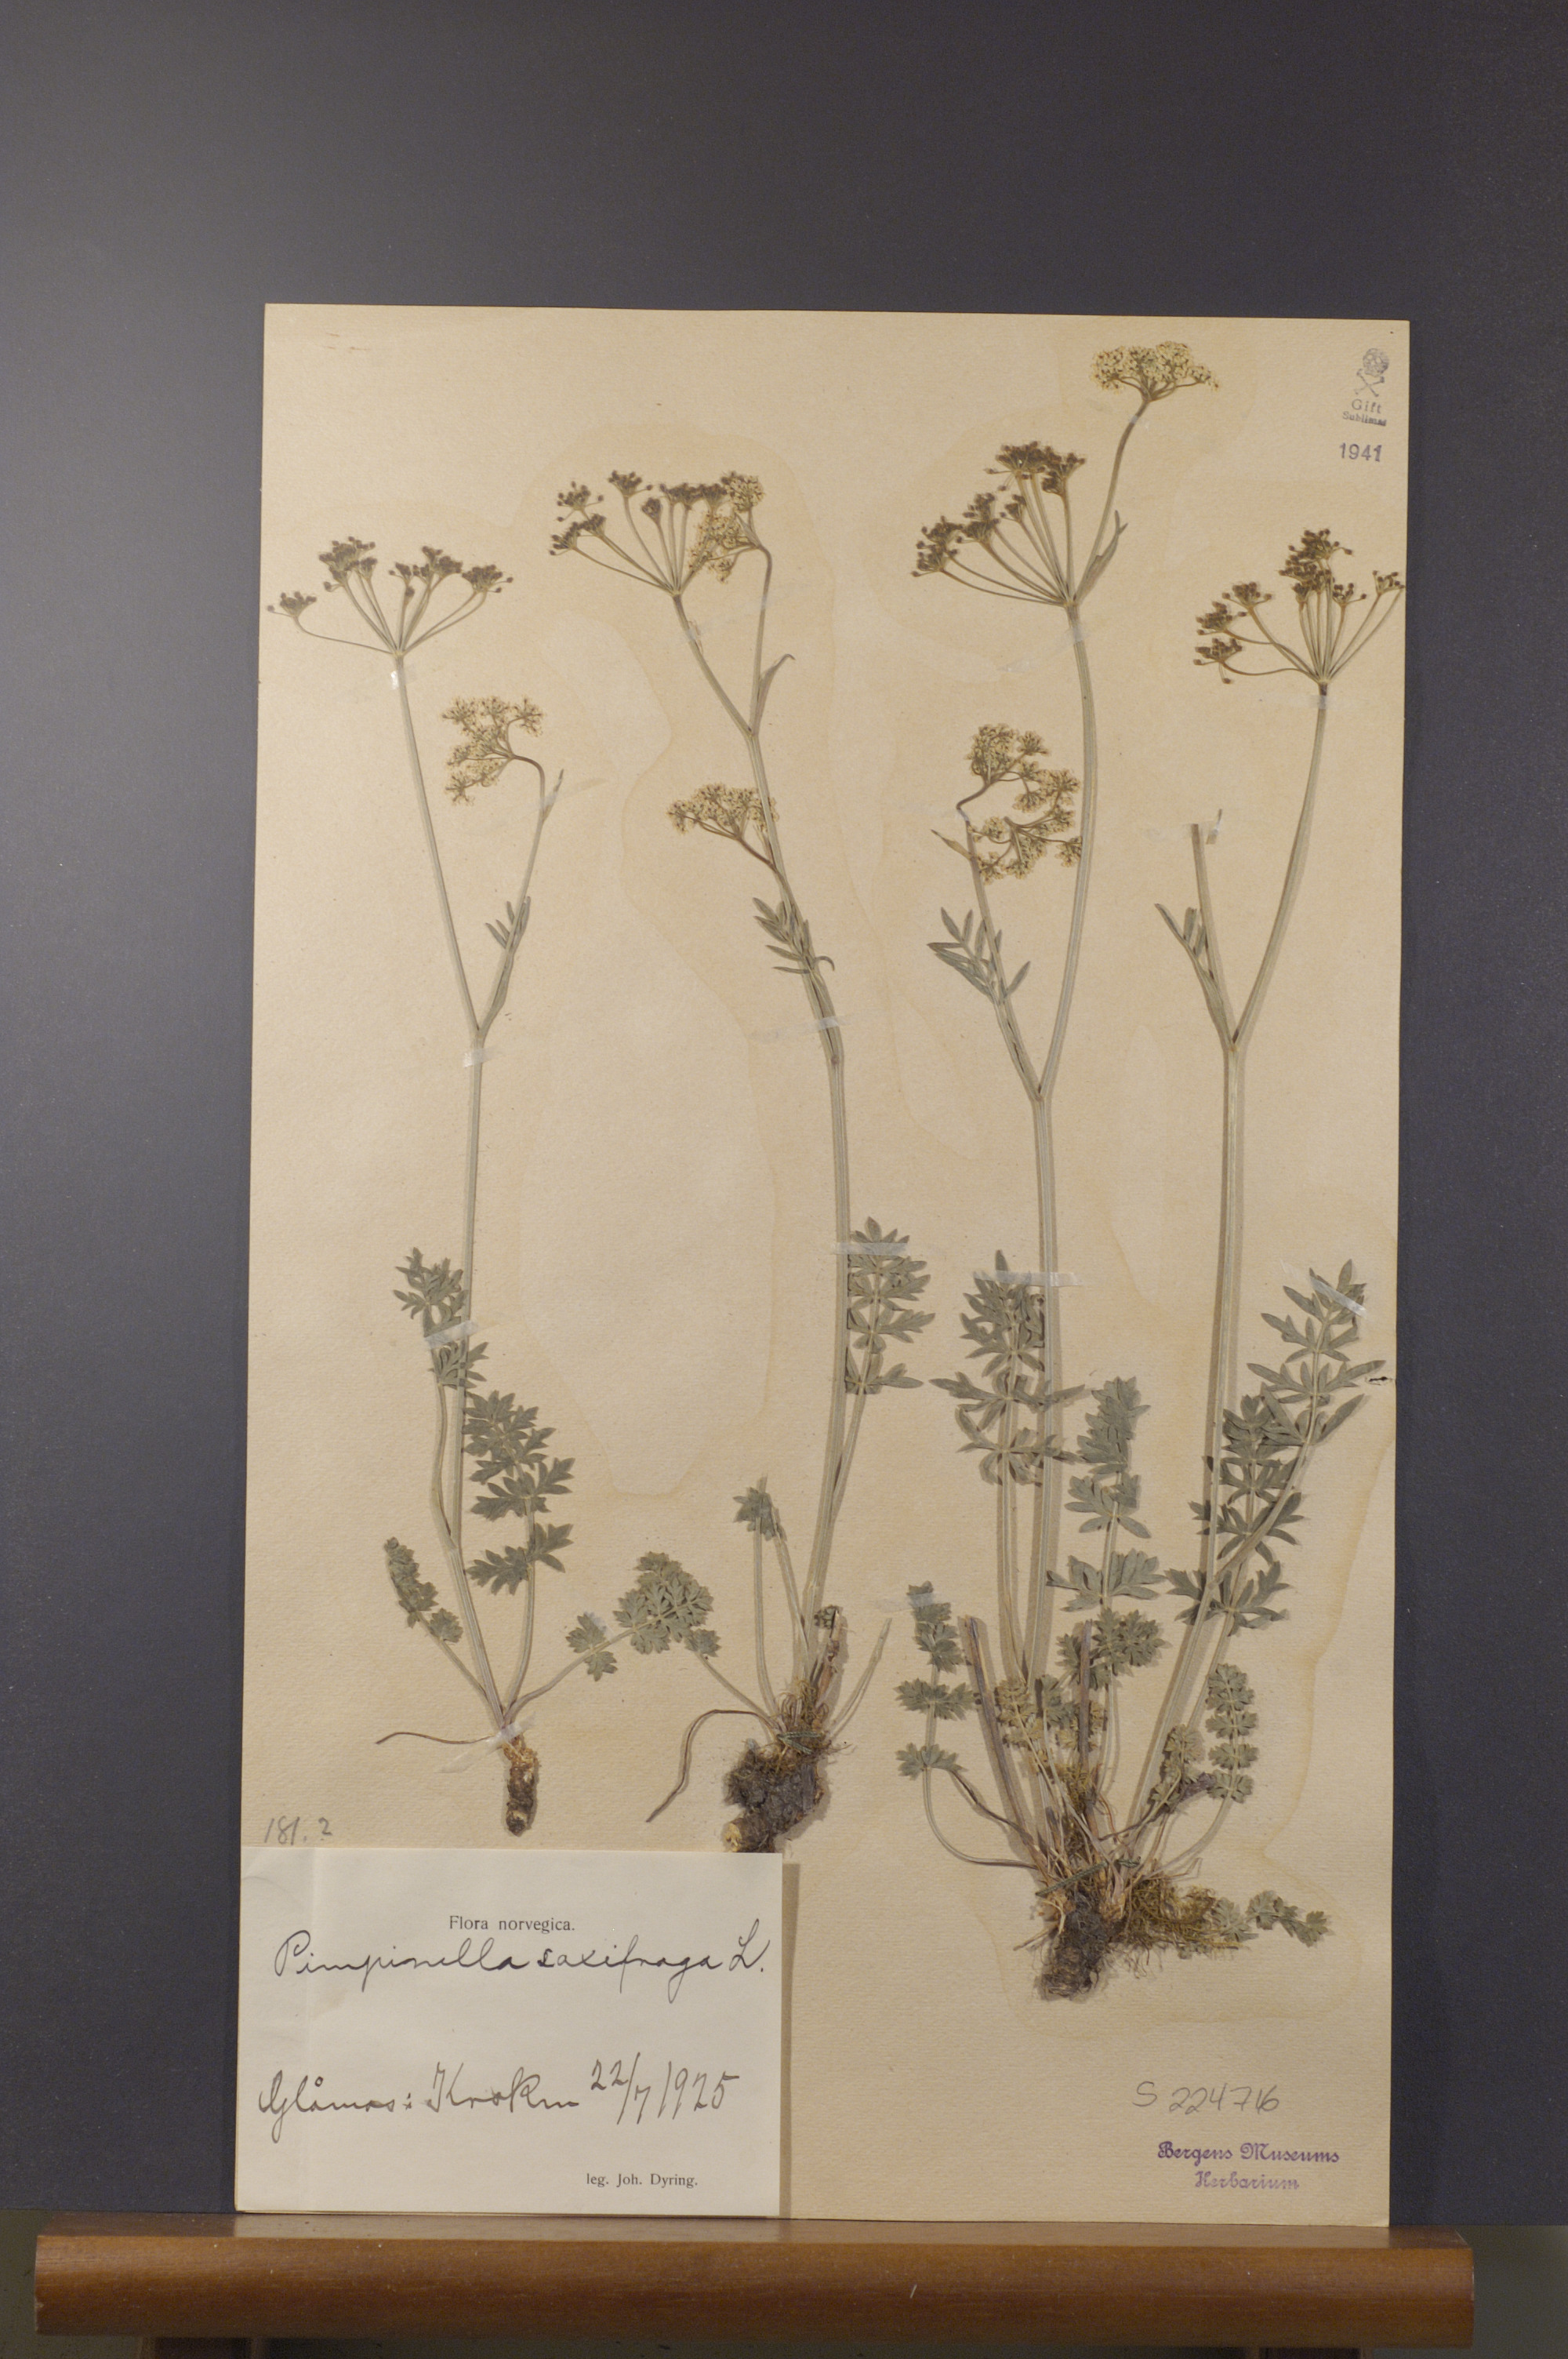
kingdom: Plantae
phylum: Tracheophyta
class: Magnoliopsida
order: Apiales
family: Apiaceae
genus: Pimpinella
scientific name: Pimpinella saxifraga
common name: Burnet-saxifrage
